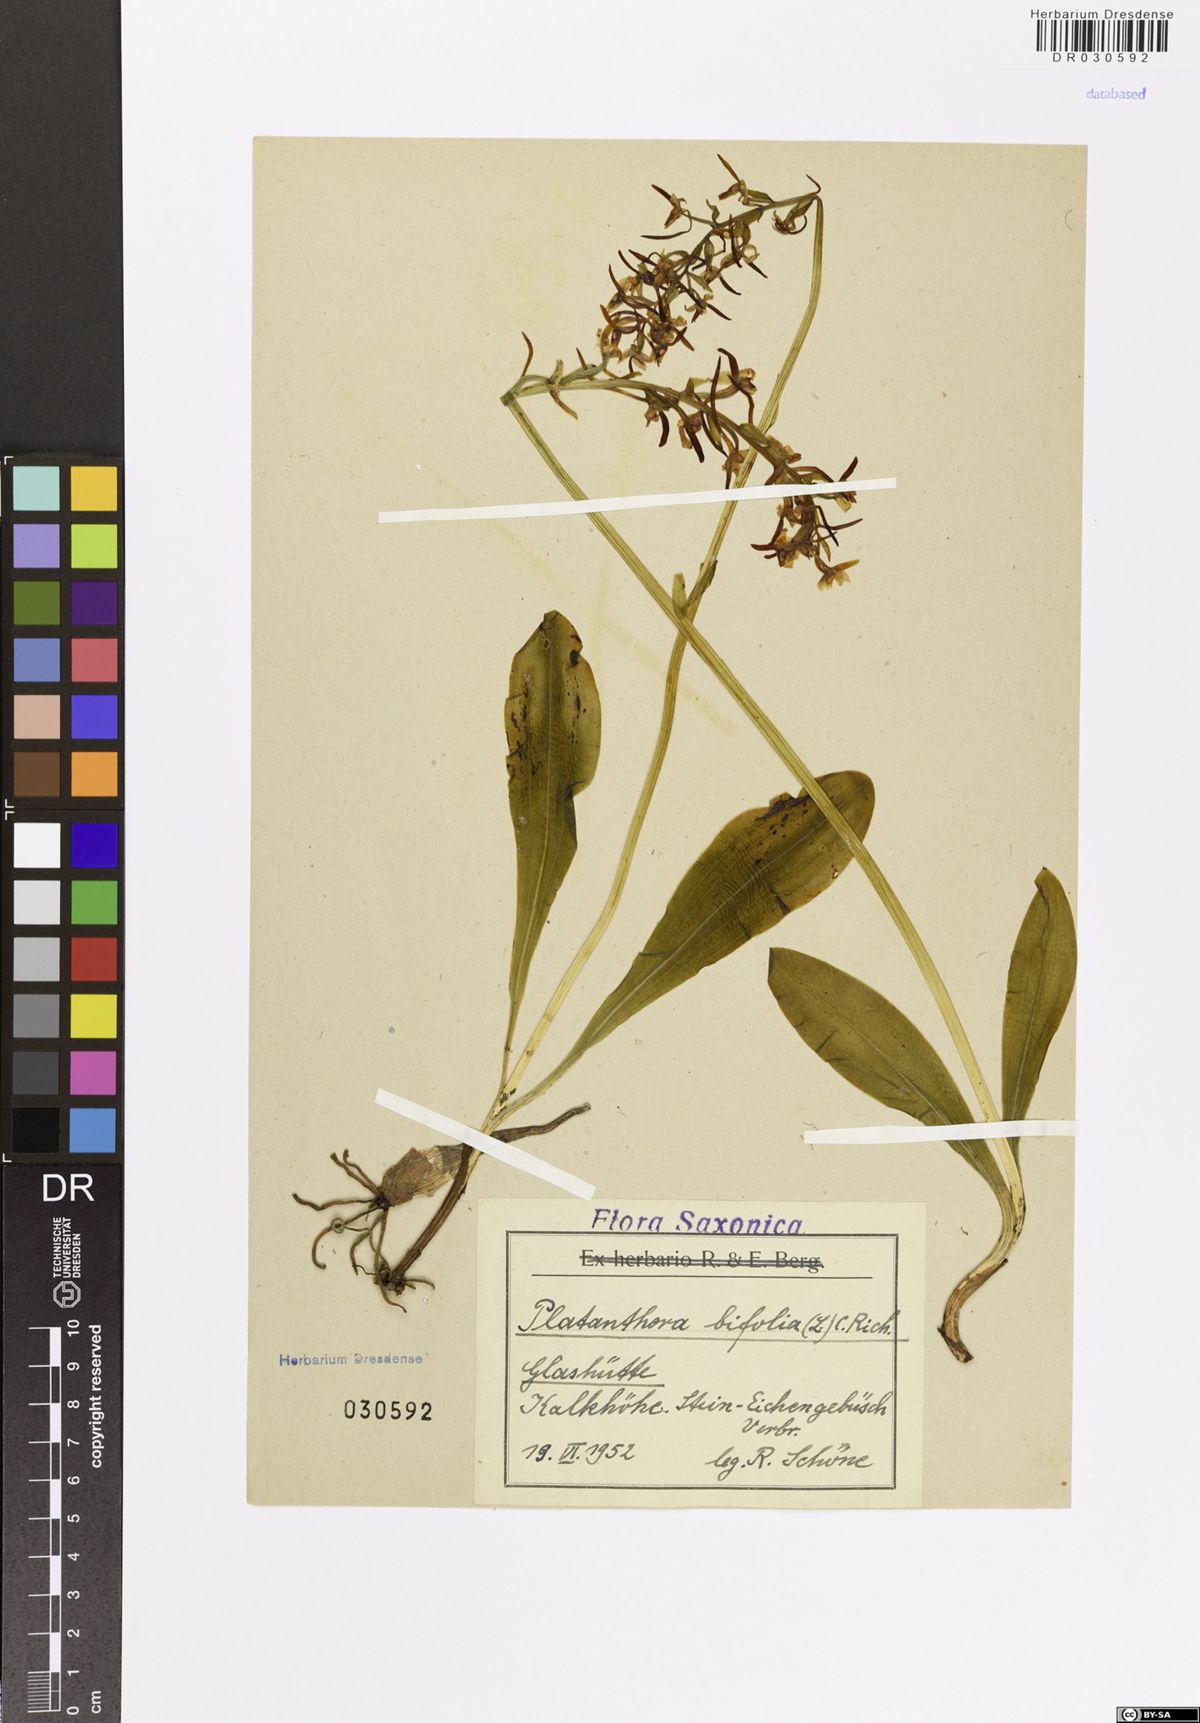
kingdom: Plantae
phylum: Tracheophyta
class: Liliopsida
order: Asparagales
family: Orchidaceae
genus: Platanthera
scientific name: Platanthera bifolia
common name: Lesser butterfly-orchid
